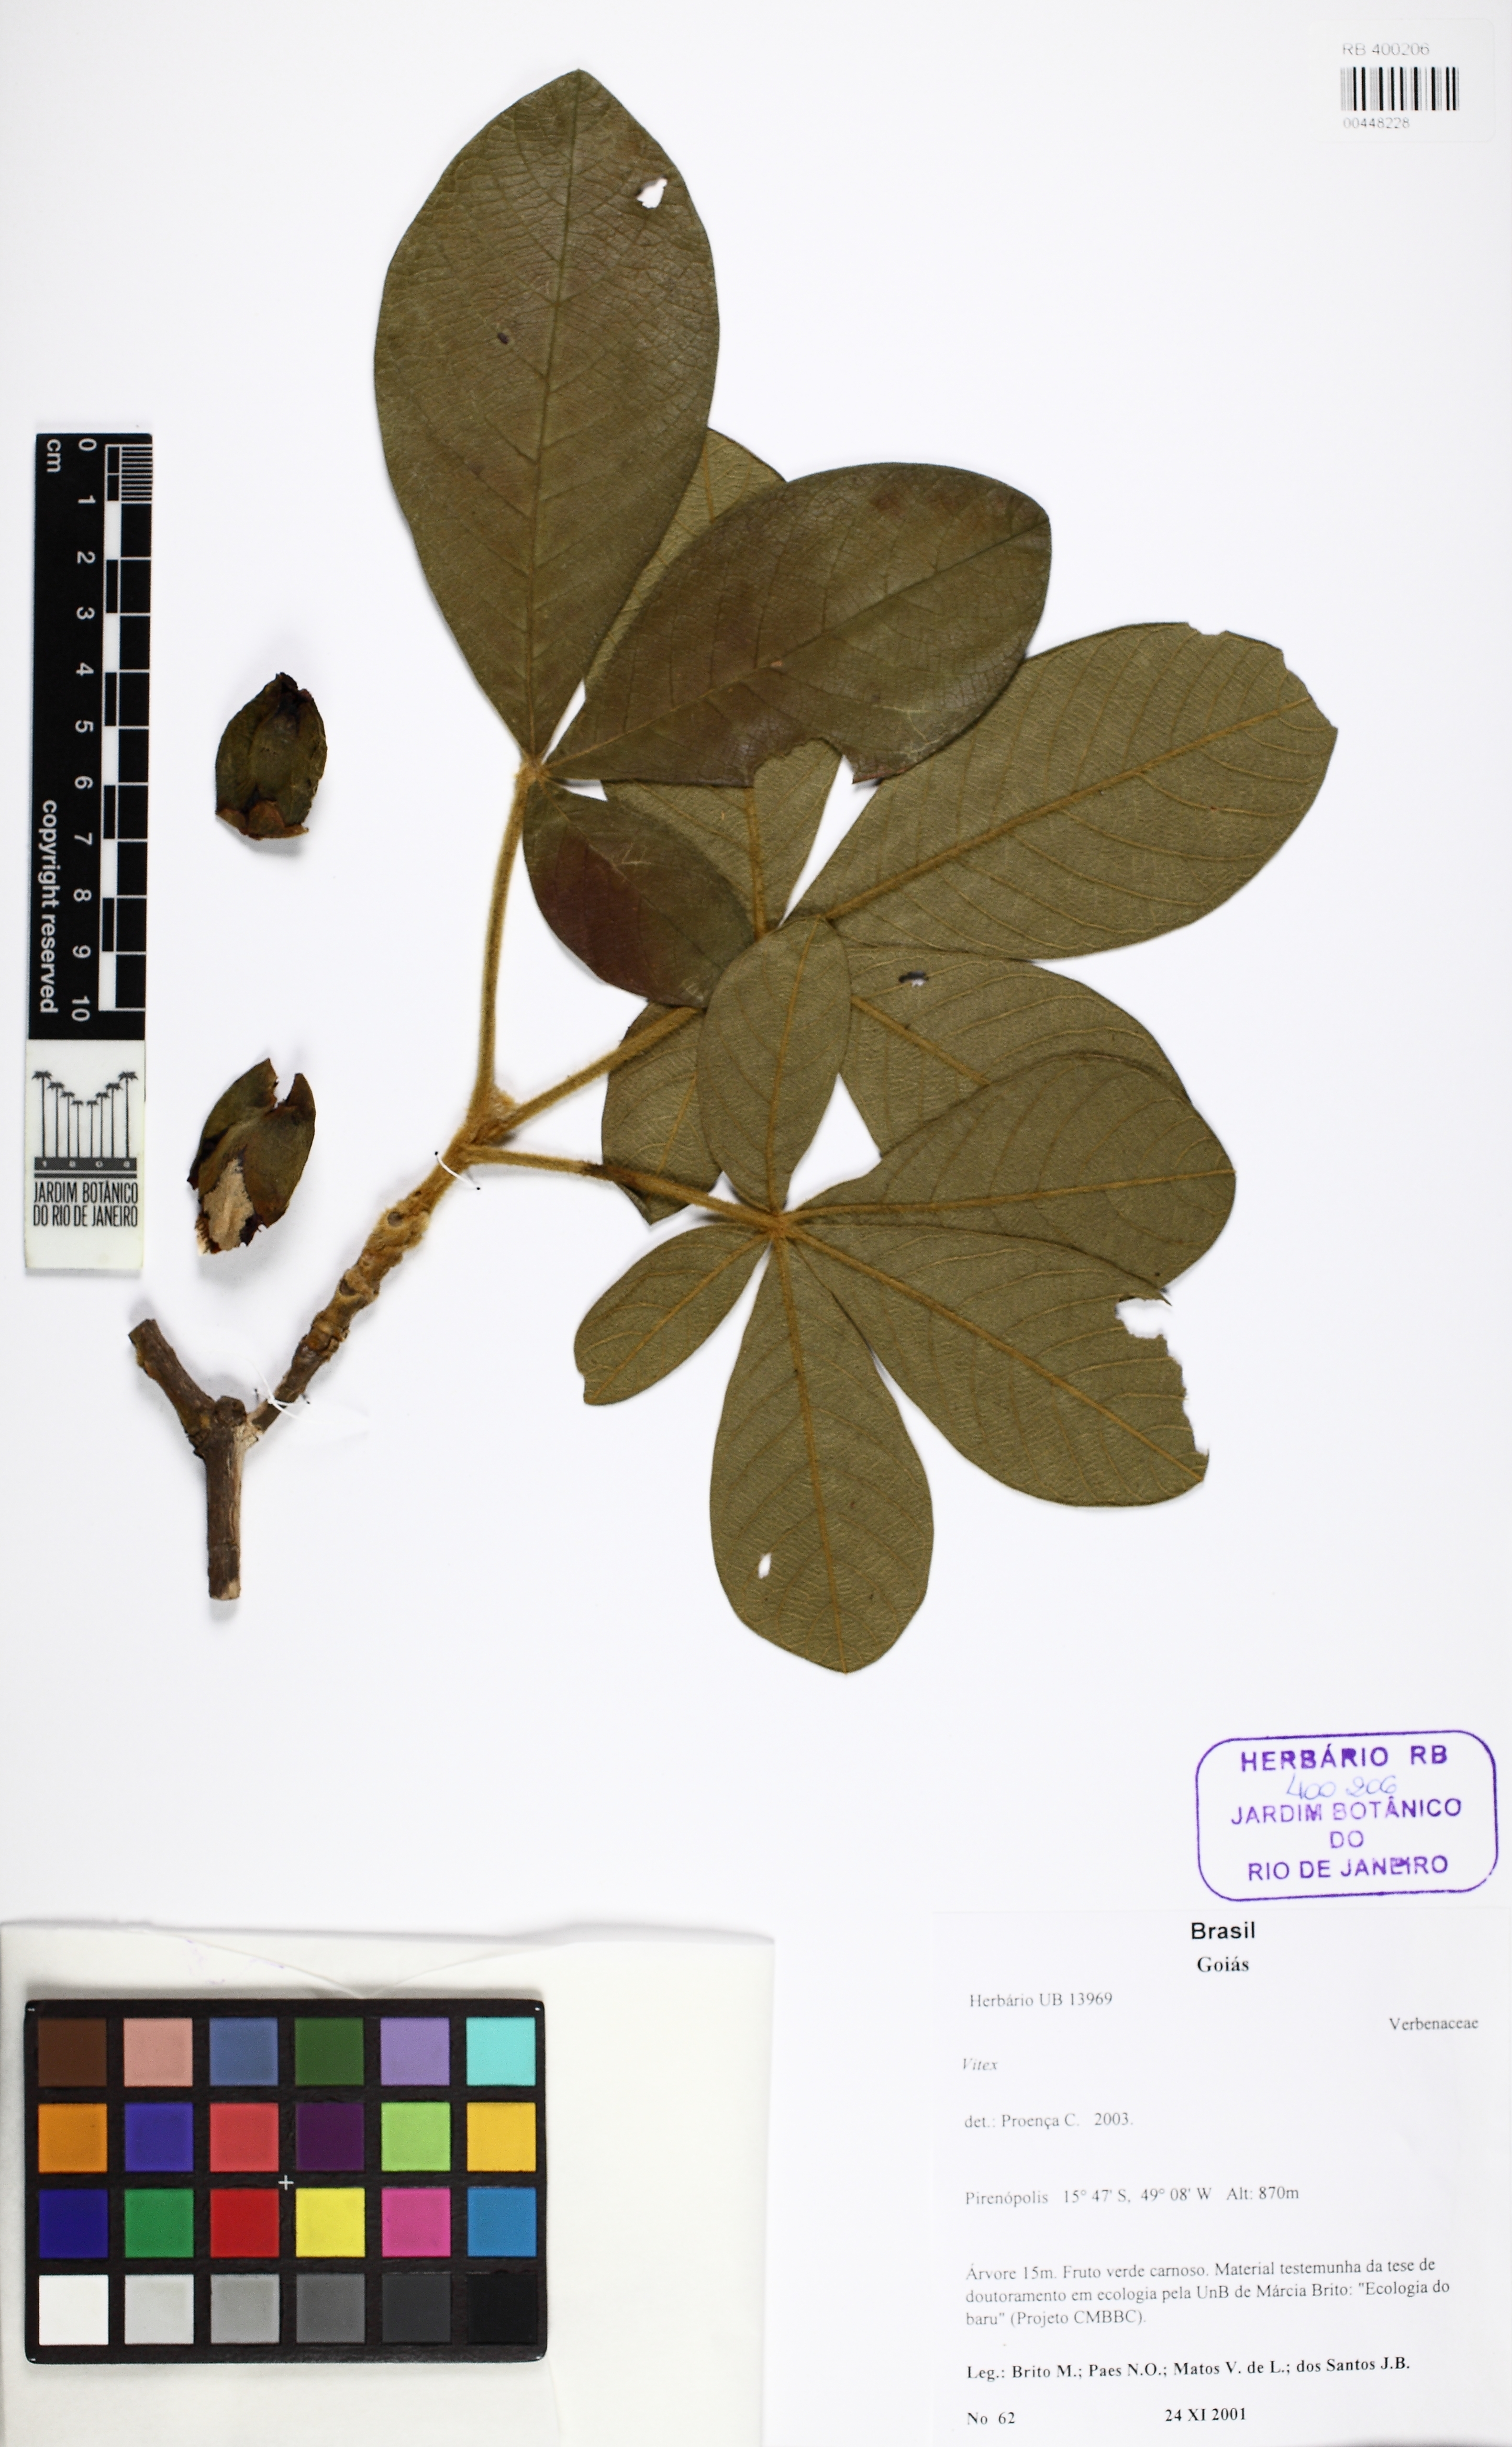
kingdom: Plantae
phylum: Tracheophyta
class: Magnoliopsida
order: Lamiales
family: Lamiaceae
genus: Vitex
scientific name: Vitex
